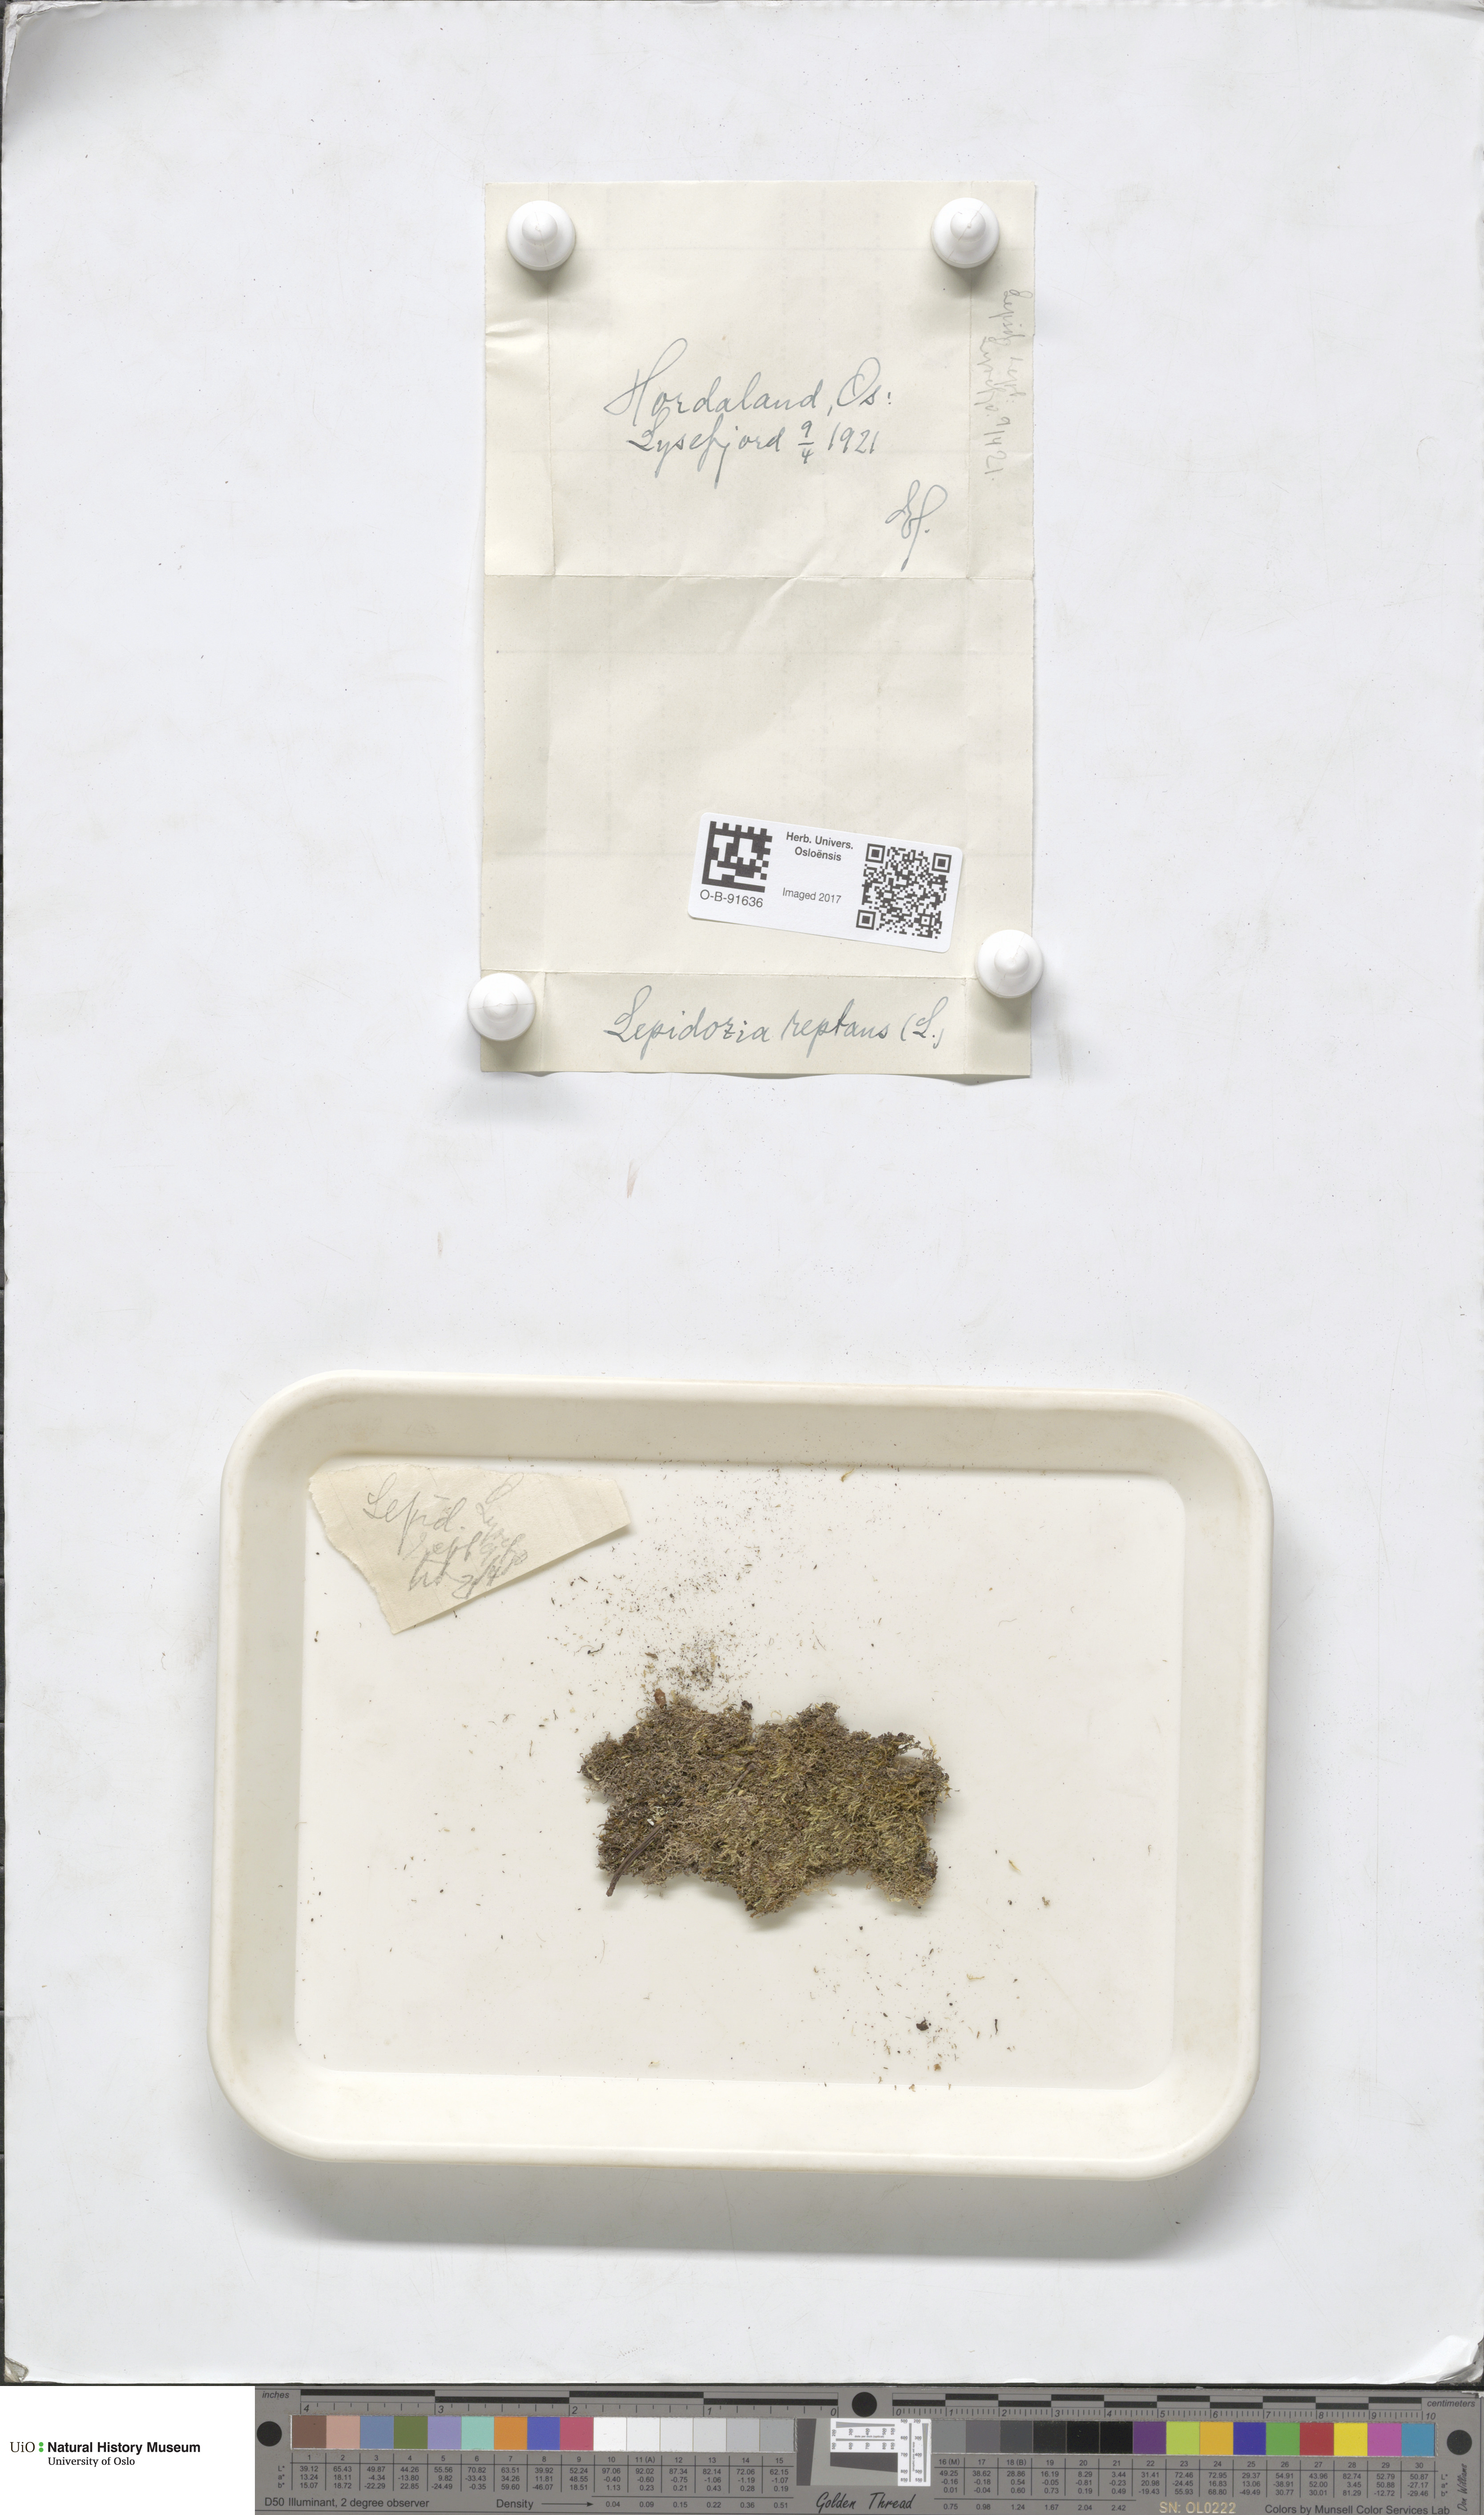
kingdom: Plantae
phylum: Marchantiophyta
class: Jungermanniopsida
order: Jungermanniales
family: Lepidoziaceae
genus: Lepidozia
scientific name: Lepidozia reptans
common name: Creeping fingerwort
